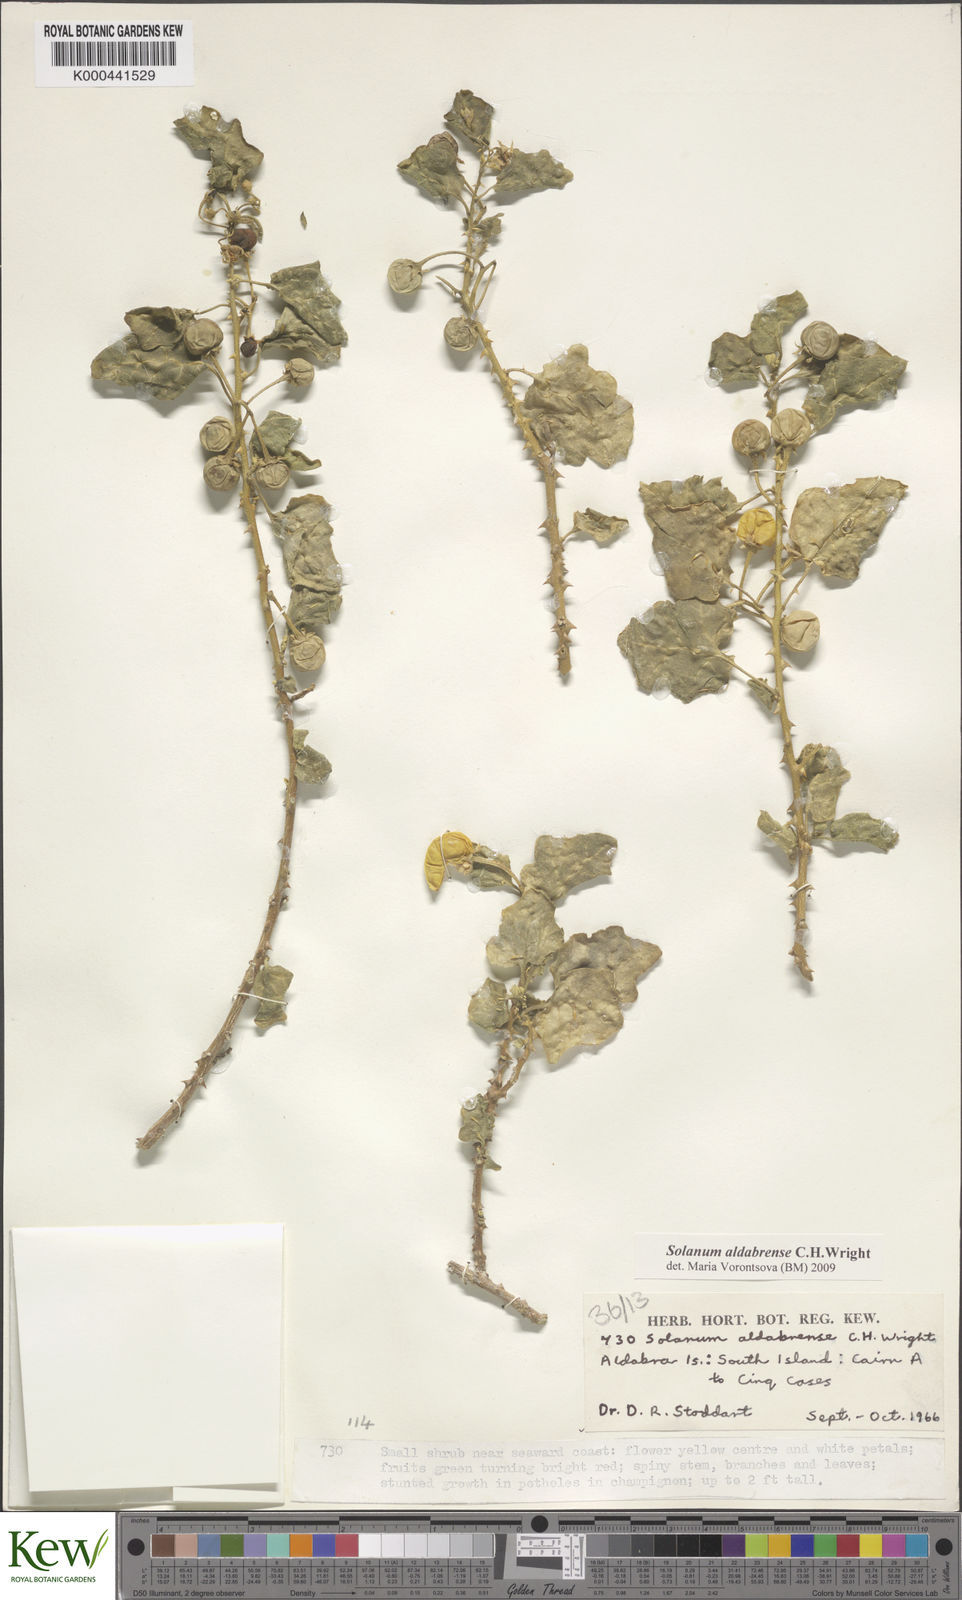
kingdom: Plantae
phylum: Tracheophyta
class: Magnoliopsida
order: Solanales
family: Solanaceae
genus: Solanum
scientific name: Solanum aldabrense
